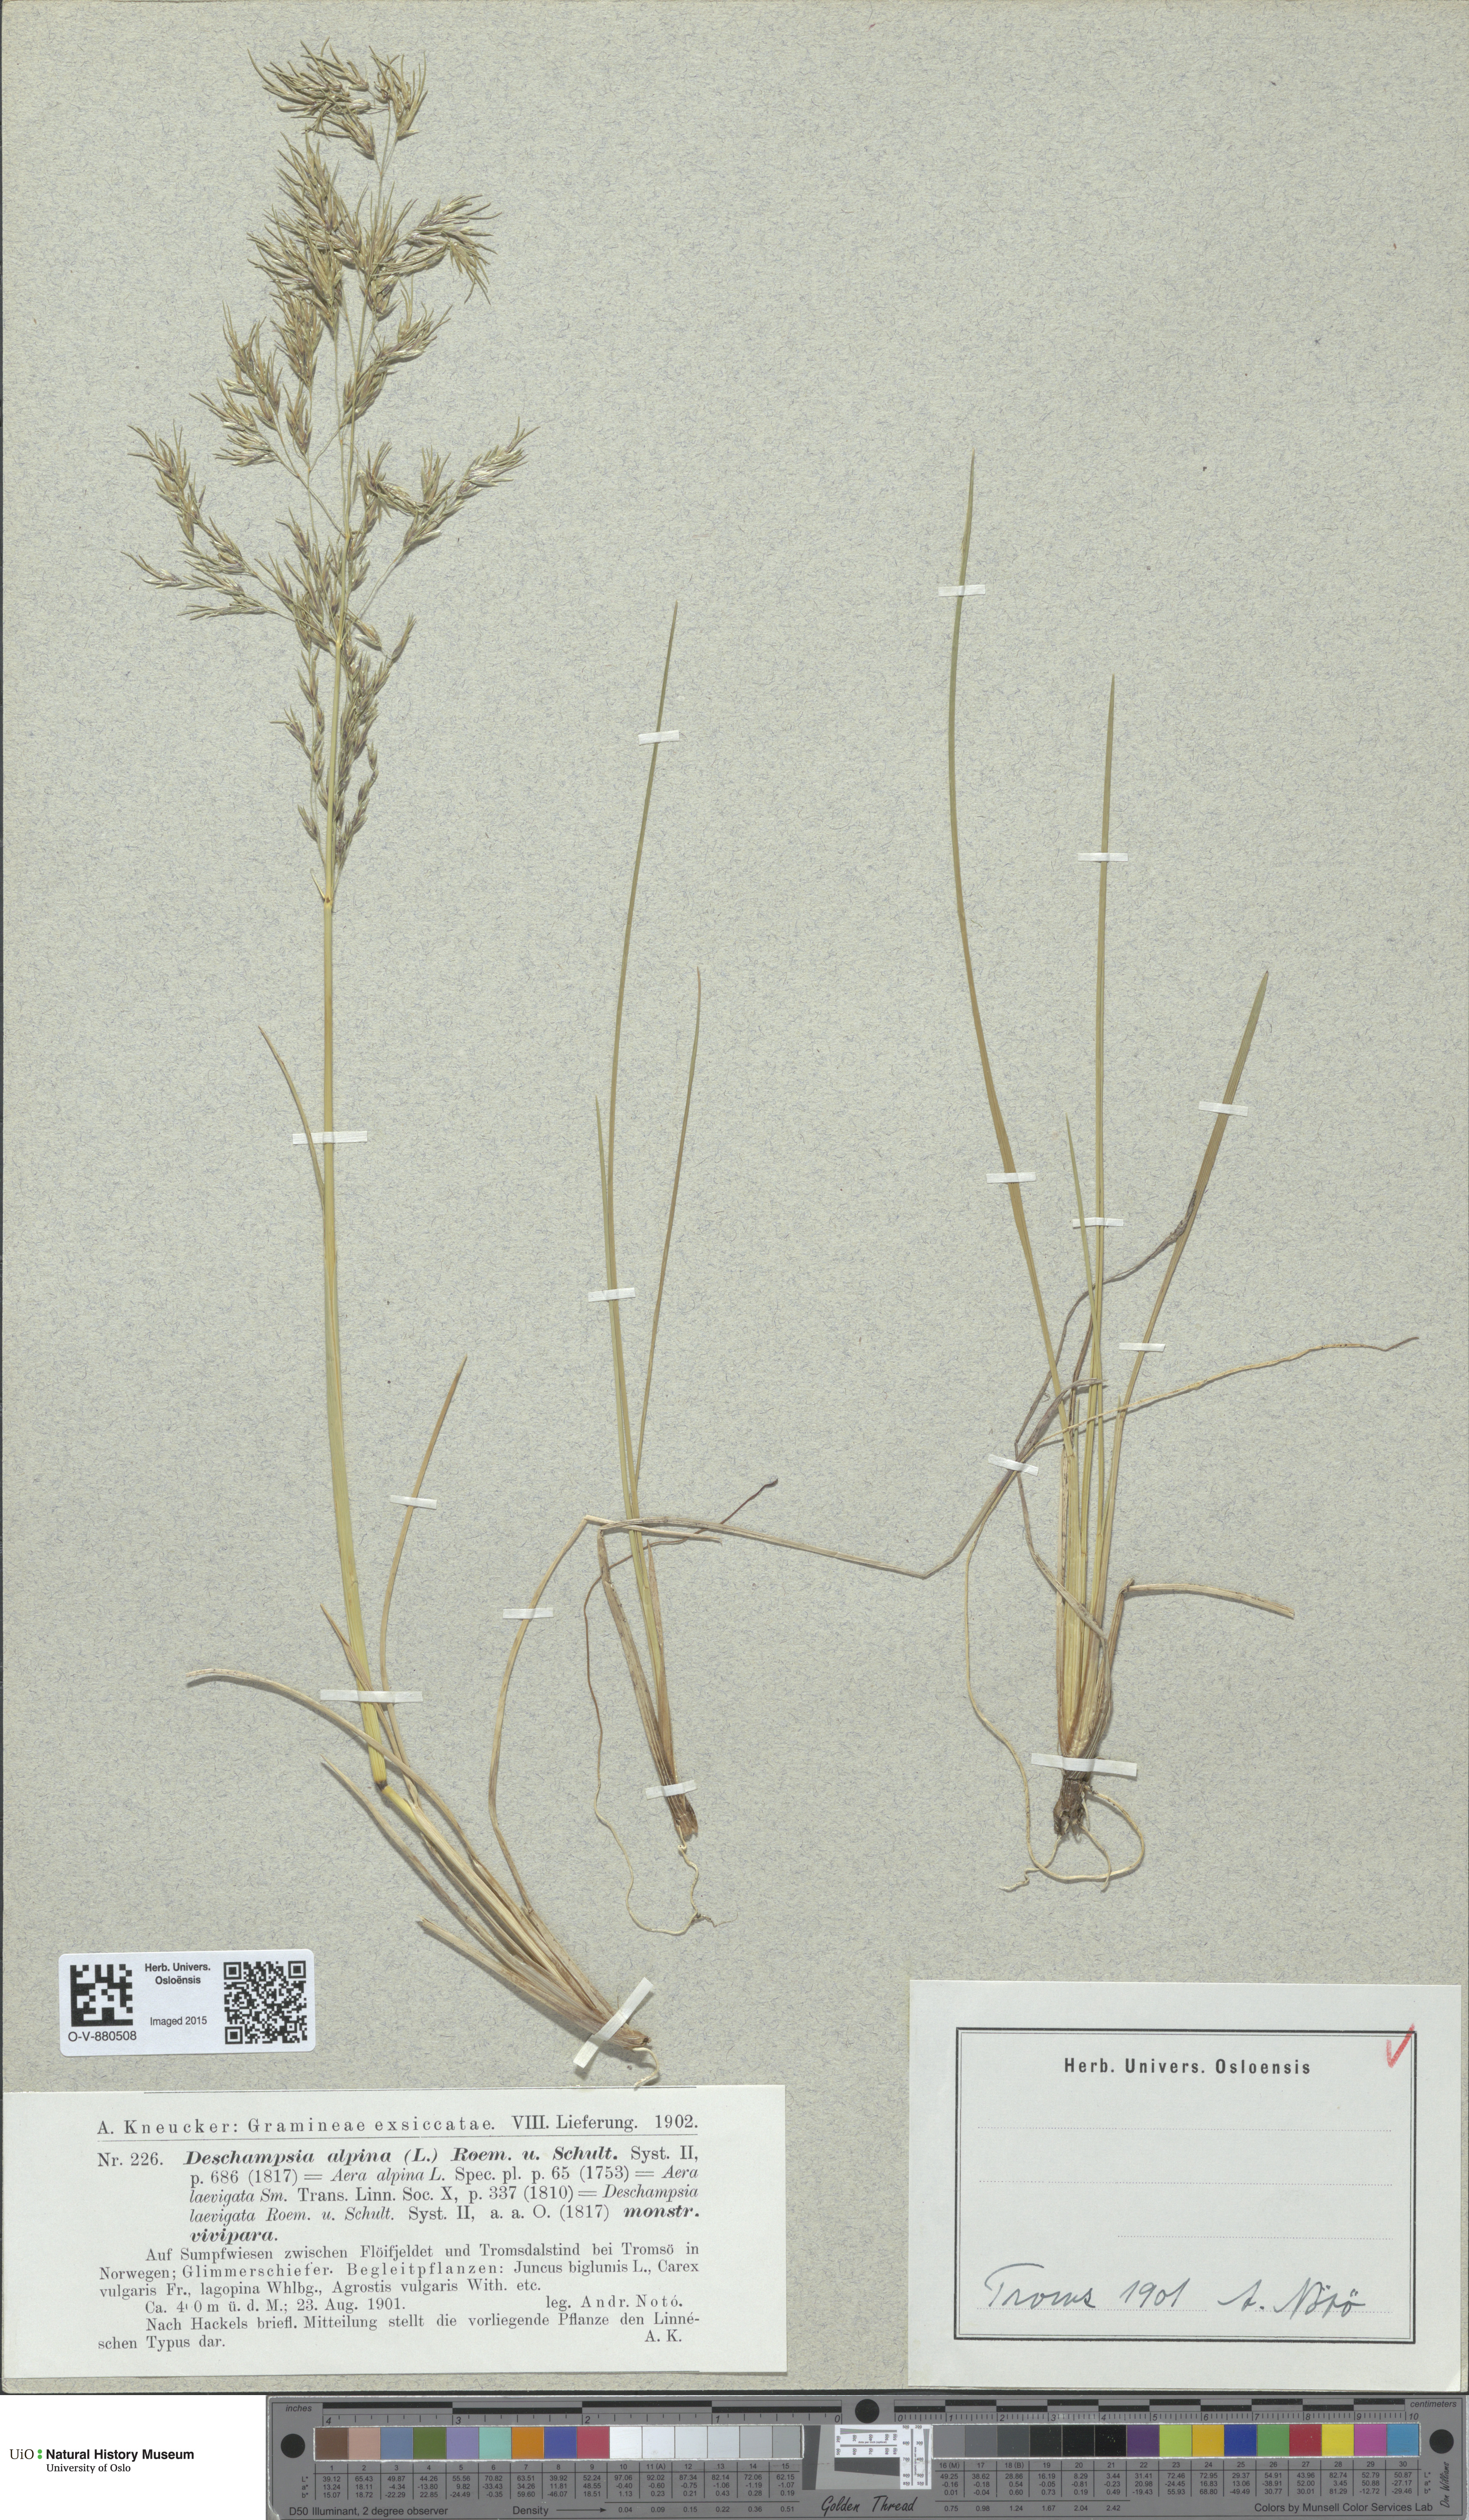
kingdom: Plantae
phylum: Tracheophyta
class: Liliopsida
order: Poales
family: Poaceae
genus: Deschampsia
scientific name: Deschampsia cespitosa
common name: Tufted hair-grass
